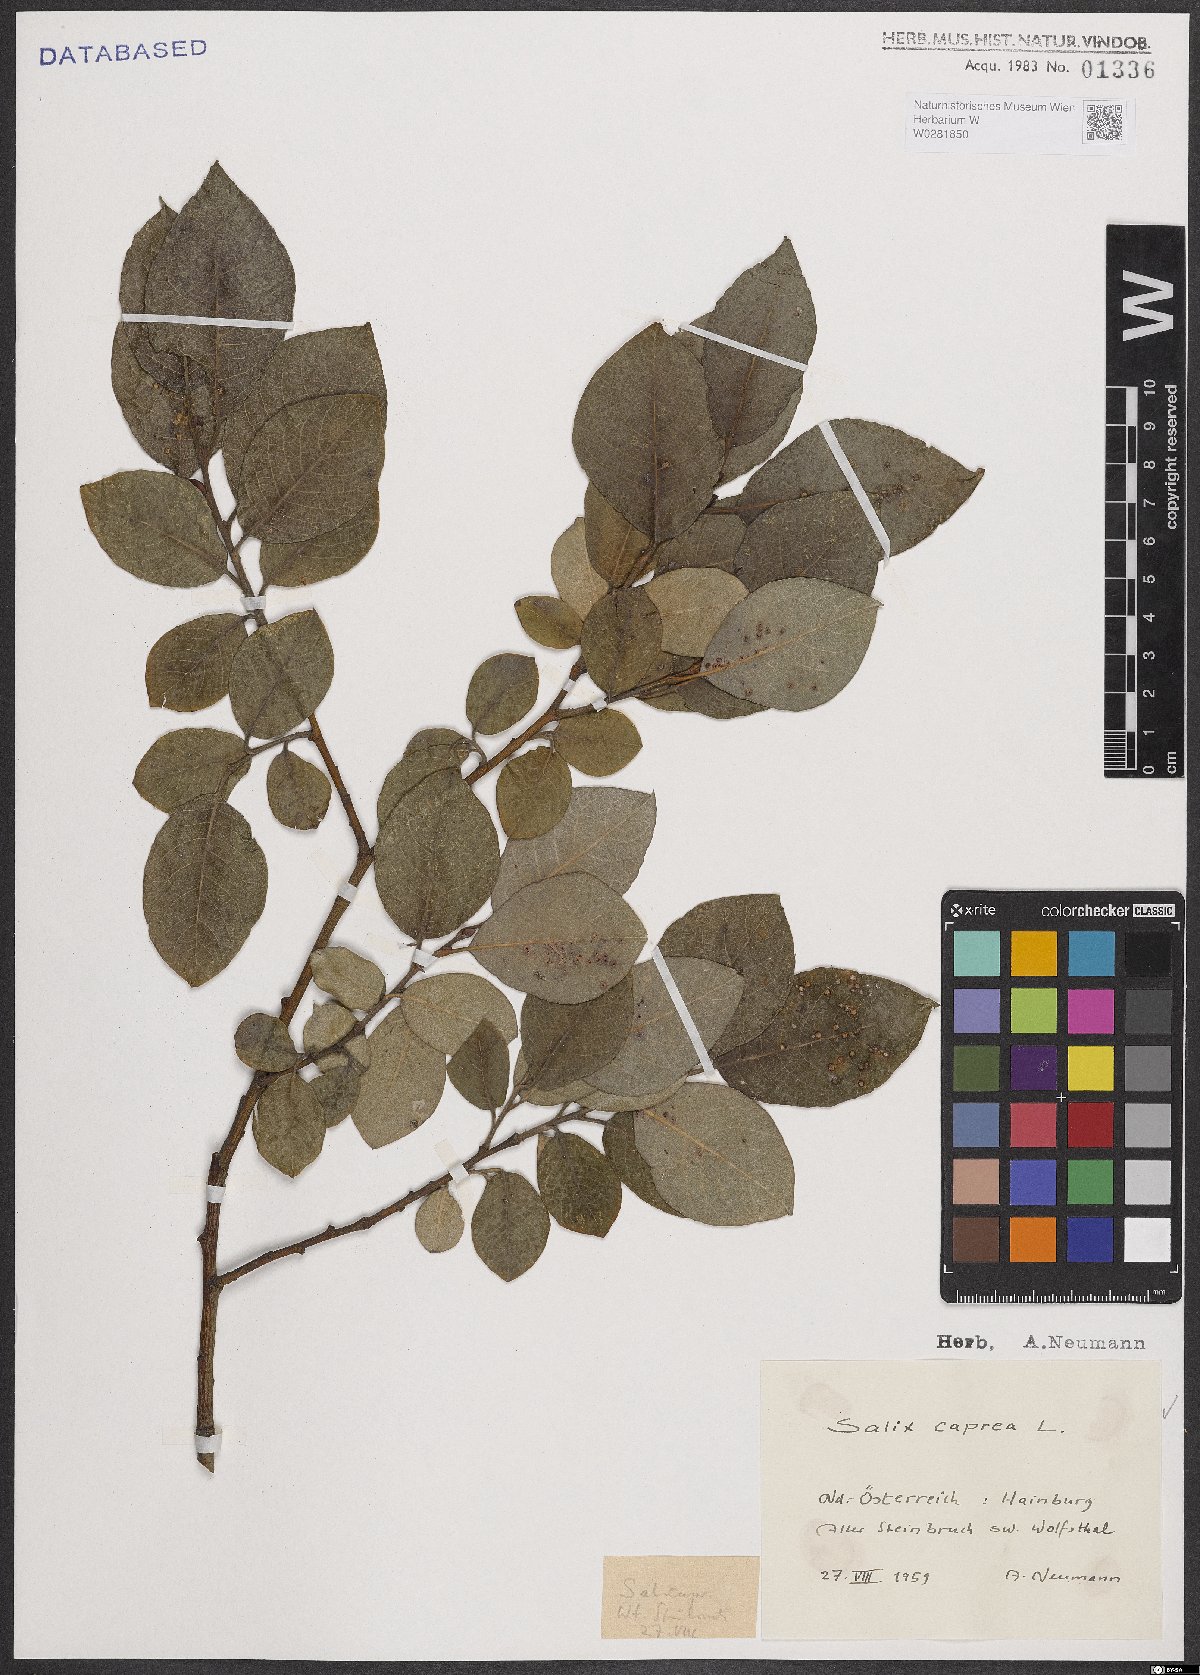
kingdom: Plantae
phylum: Tracheophyta
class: Magnoliopsida
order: Malpighiales
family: Salicaceae
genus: Salix
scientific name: Salix caprea
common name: Goat willow
